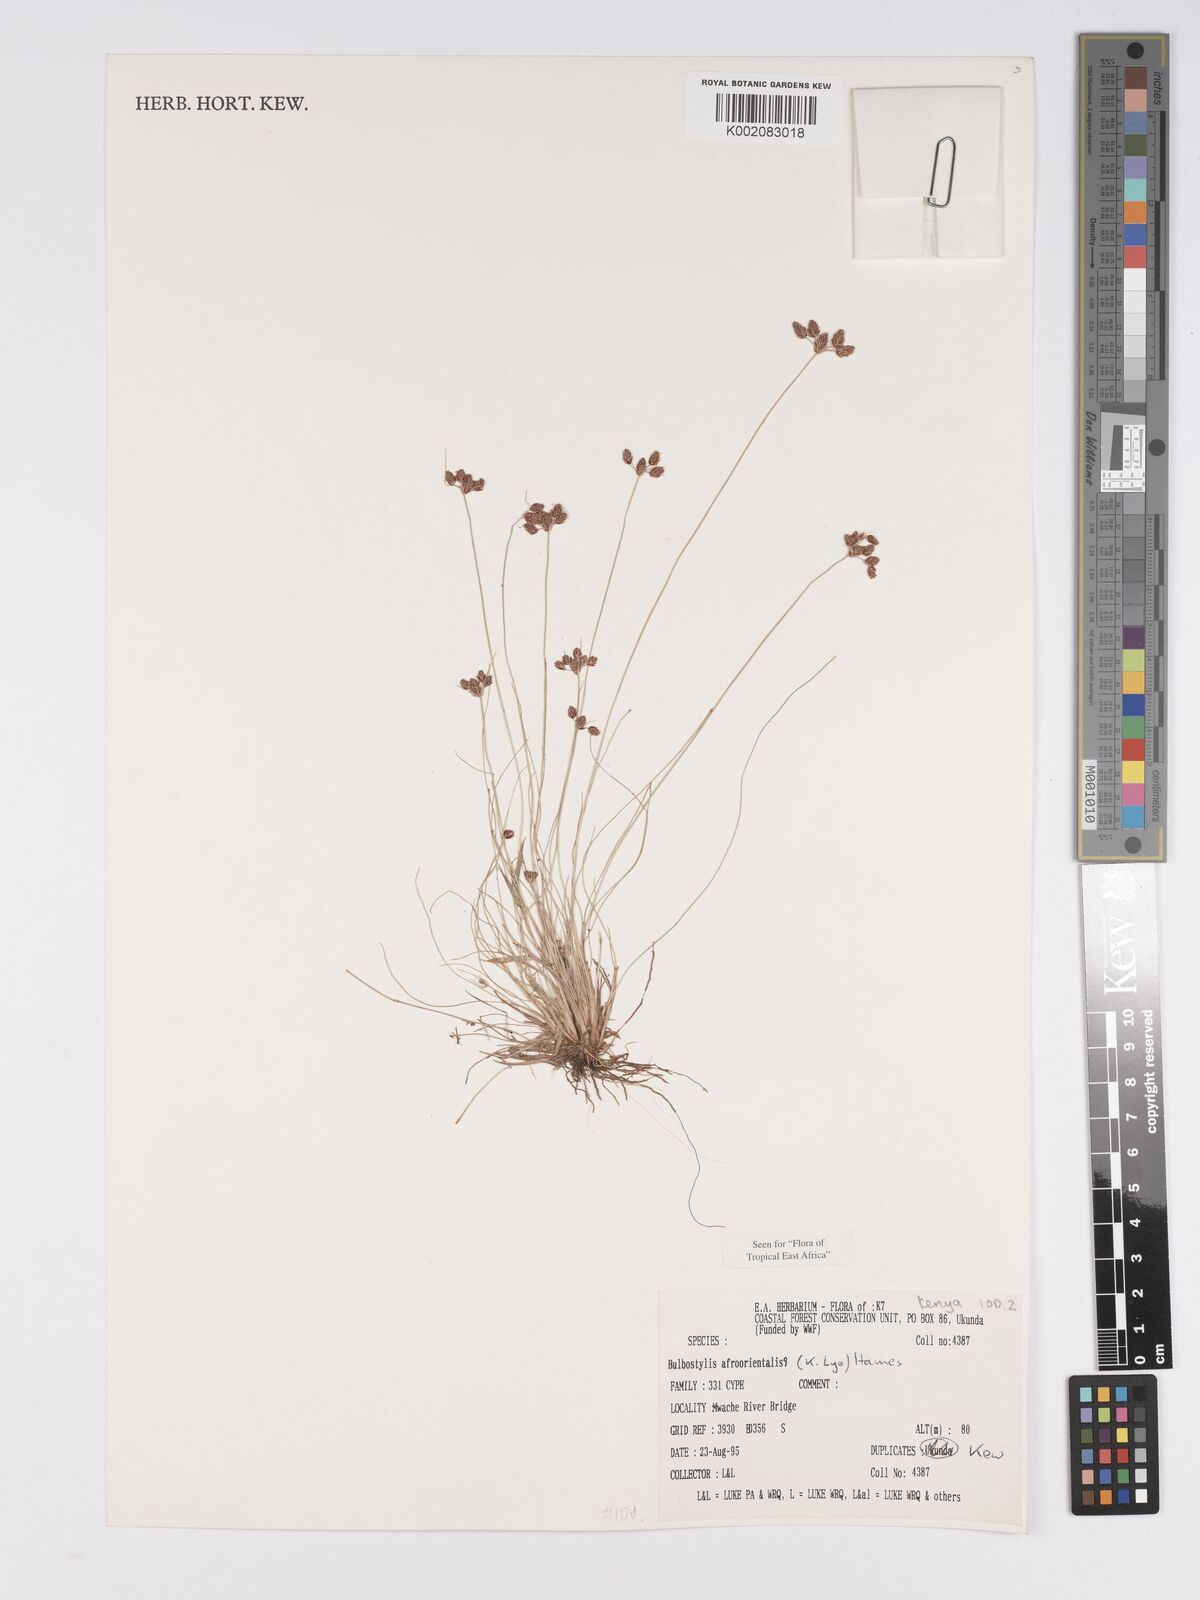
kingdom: Plantae
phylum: Tracheophyta
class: Liliopsida
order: Poales
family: Cyperaceae
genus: Bulbostylis
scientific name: Bulbostylis afroorientalis
